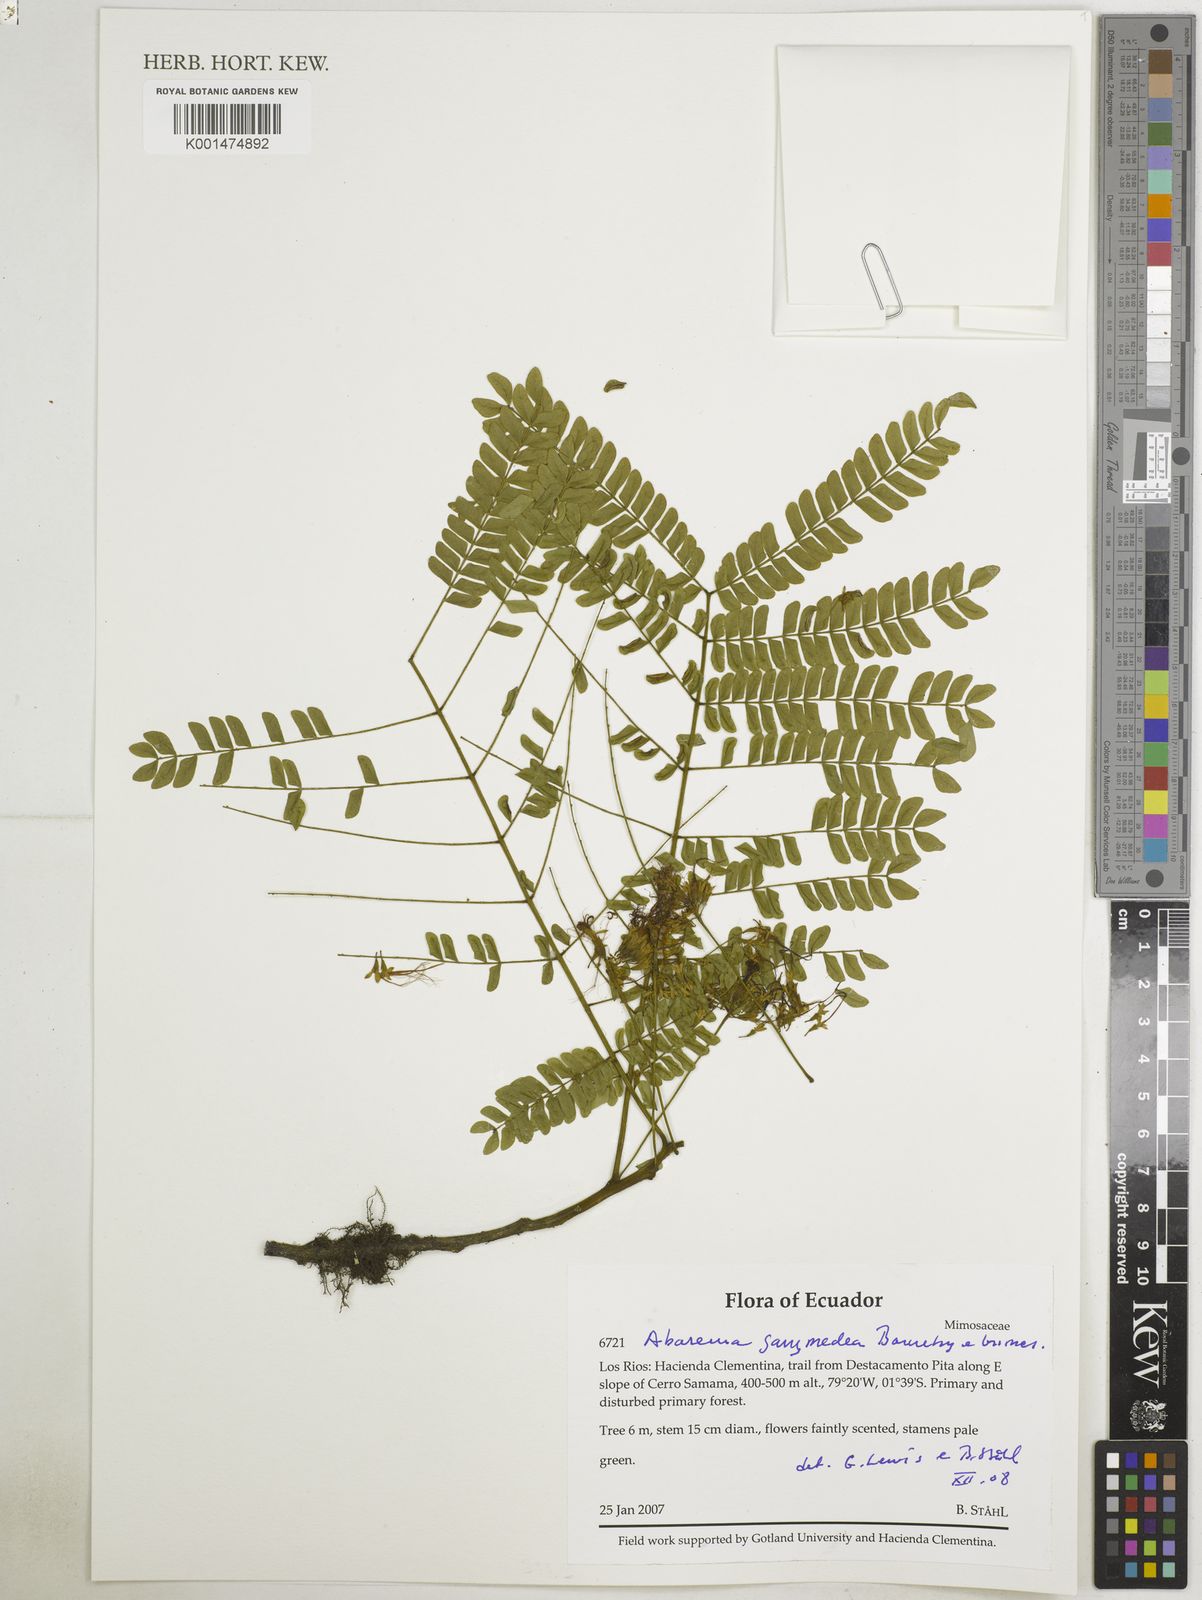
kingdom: Plantae
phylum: Tracheophyta
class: Magnoliopsida
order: Fabales
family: Fabaceae
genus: Jupunba
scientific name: Jupunba ganymedea
